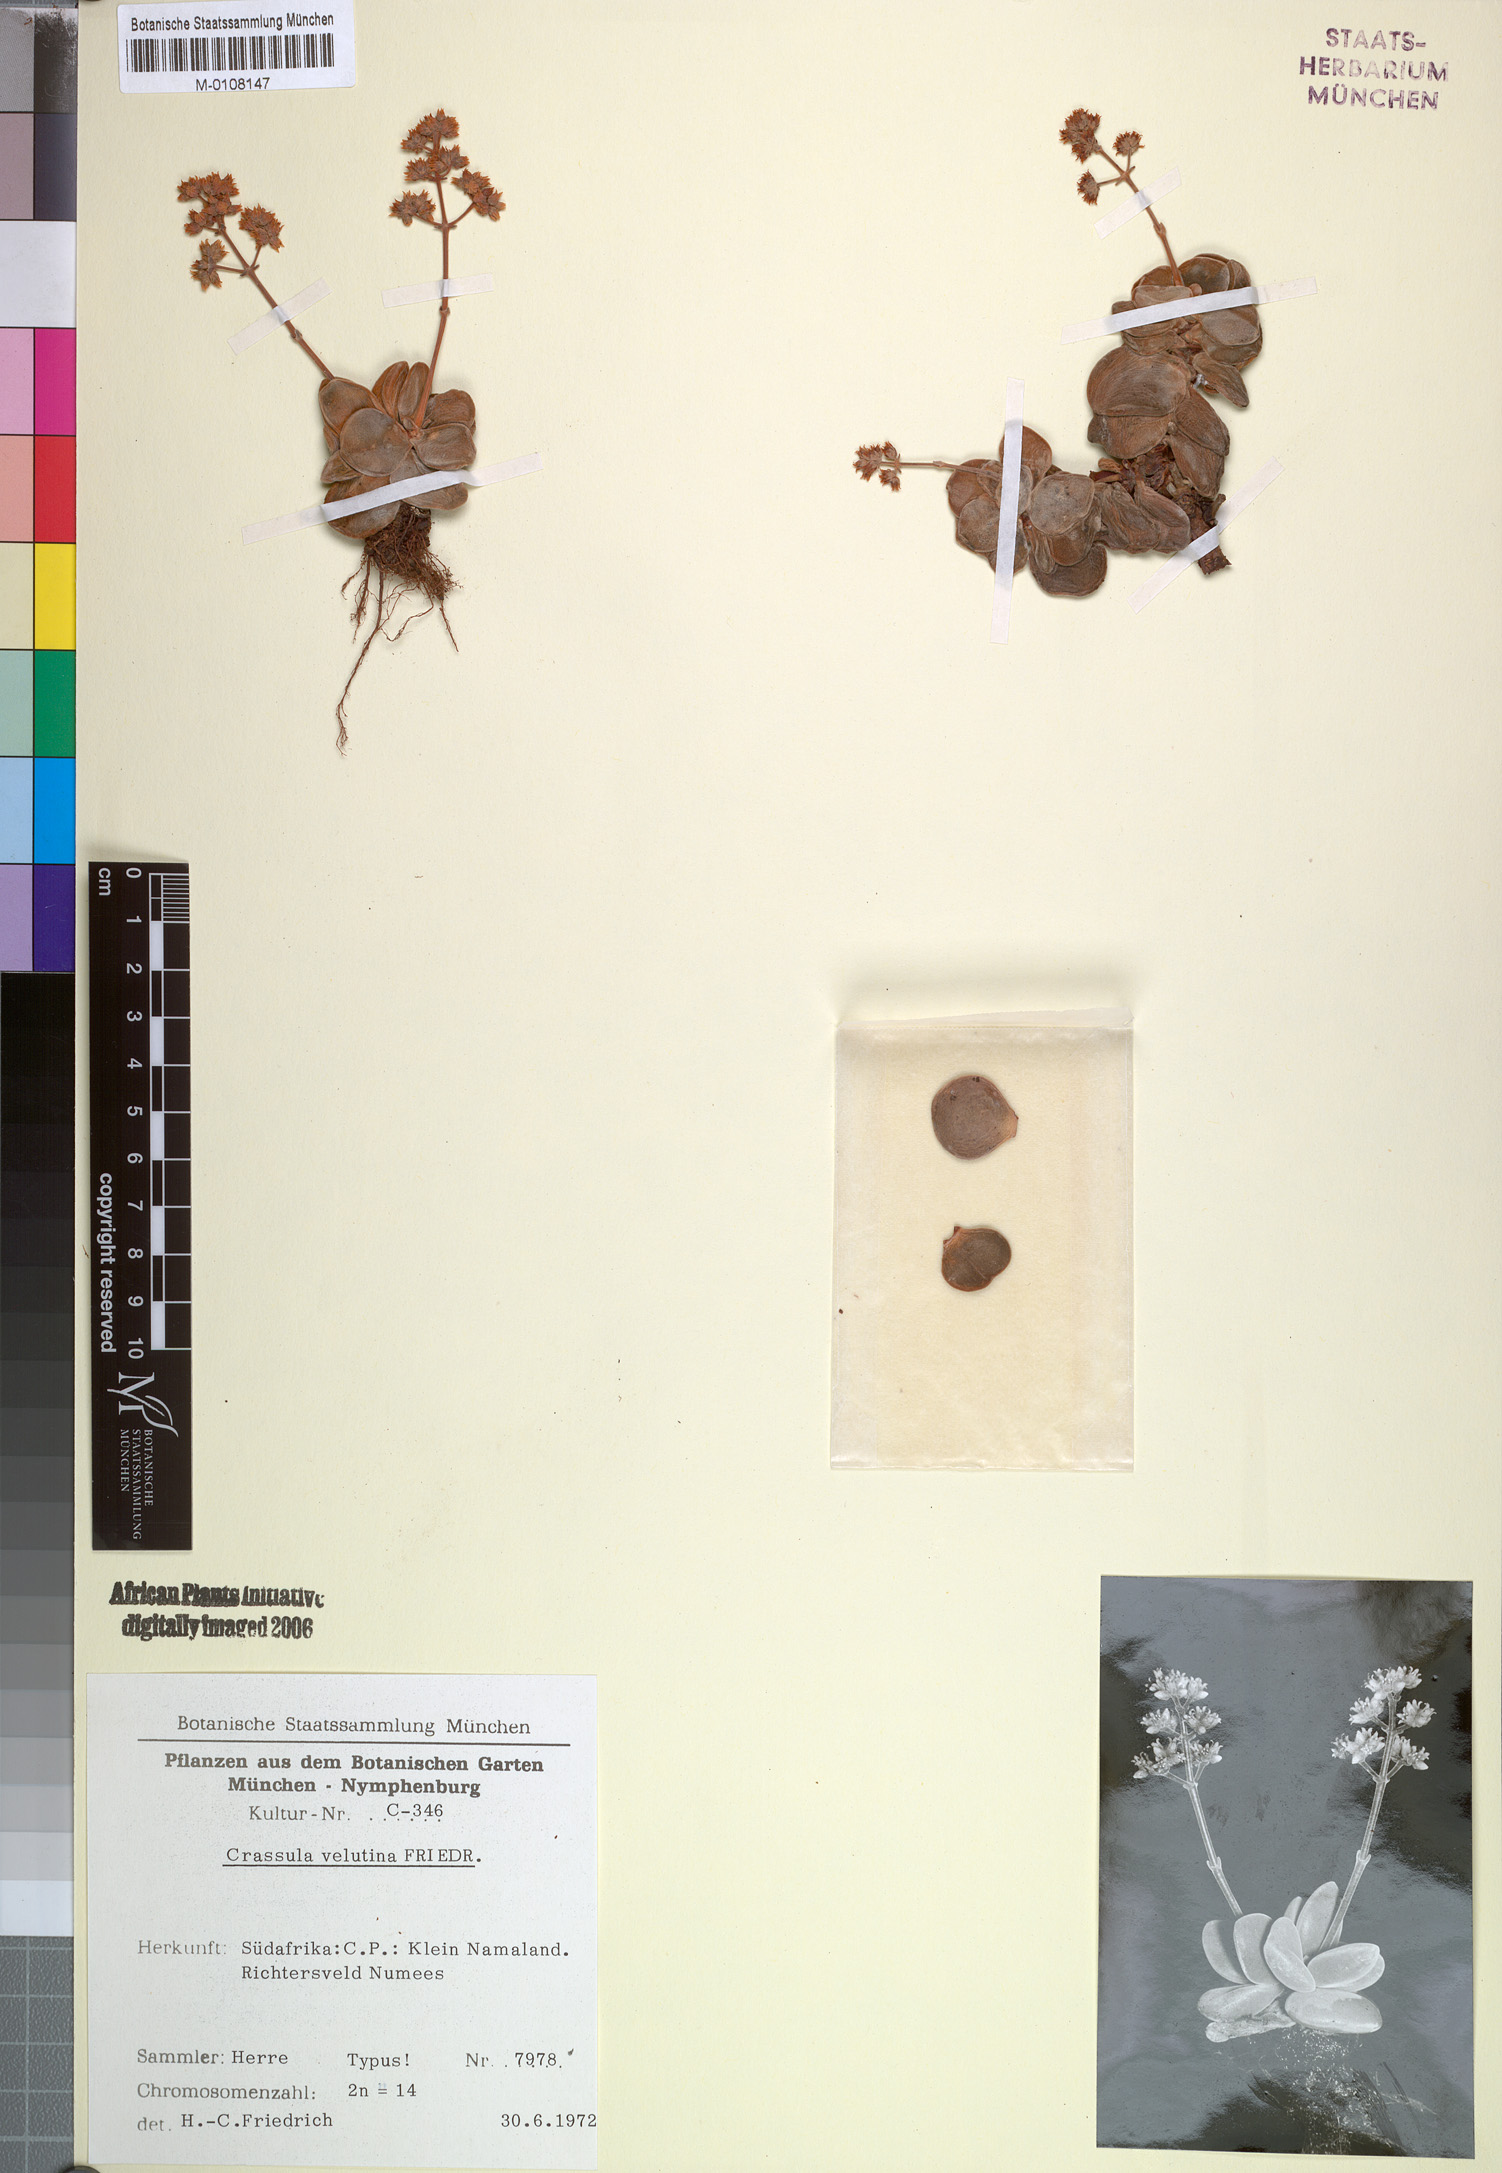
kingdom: Plantae
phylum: Tracheophyta
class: Magnoliopsida
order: Saxifragales
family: Crassulaceae
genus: Crassula
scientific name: Crassula sericea
